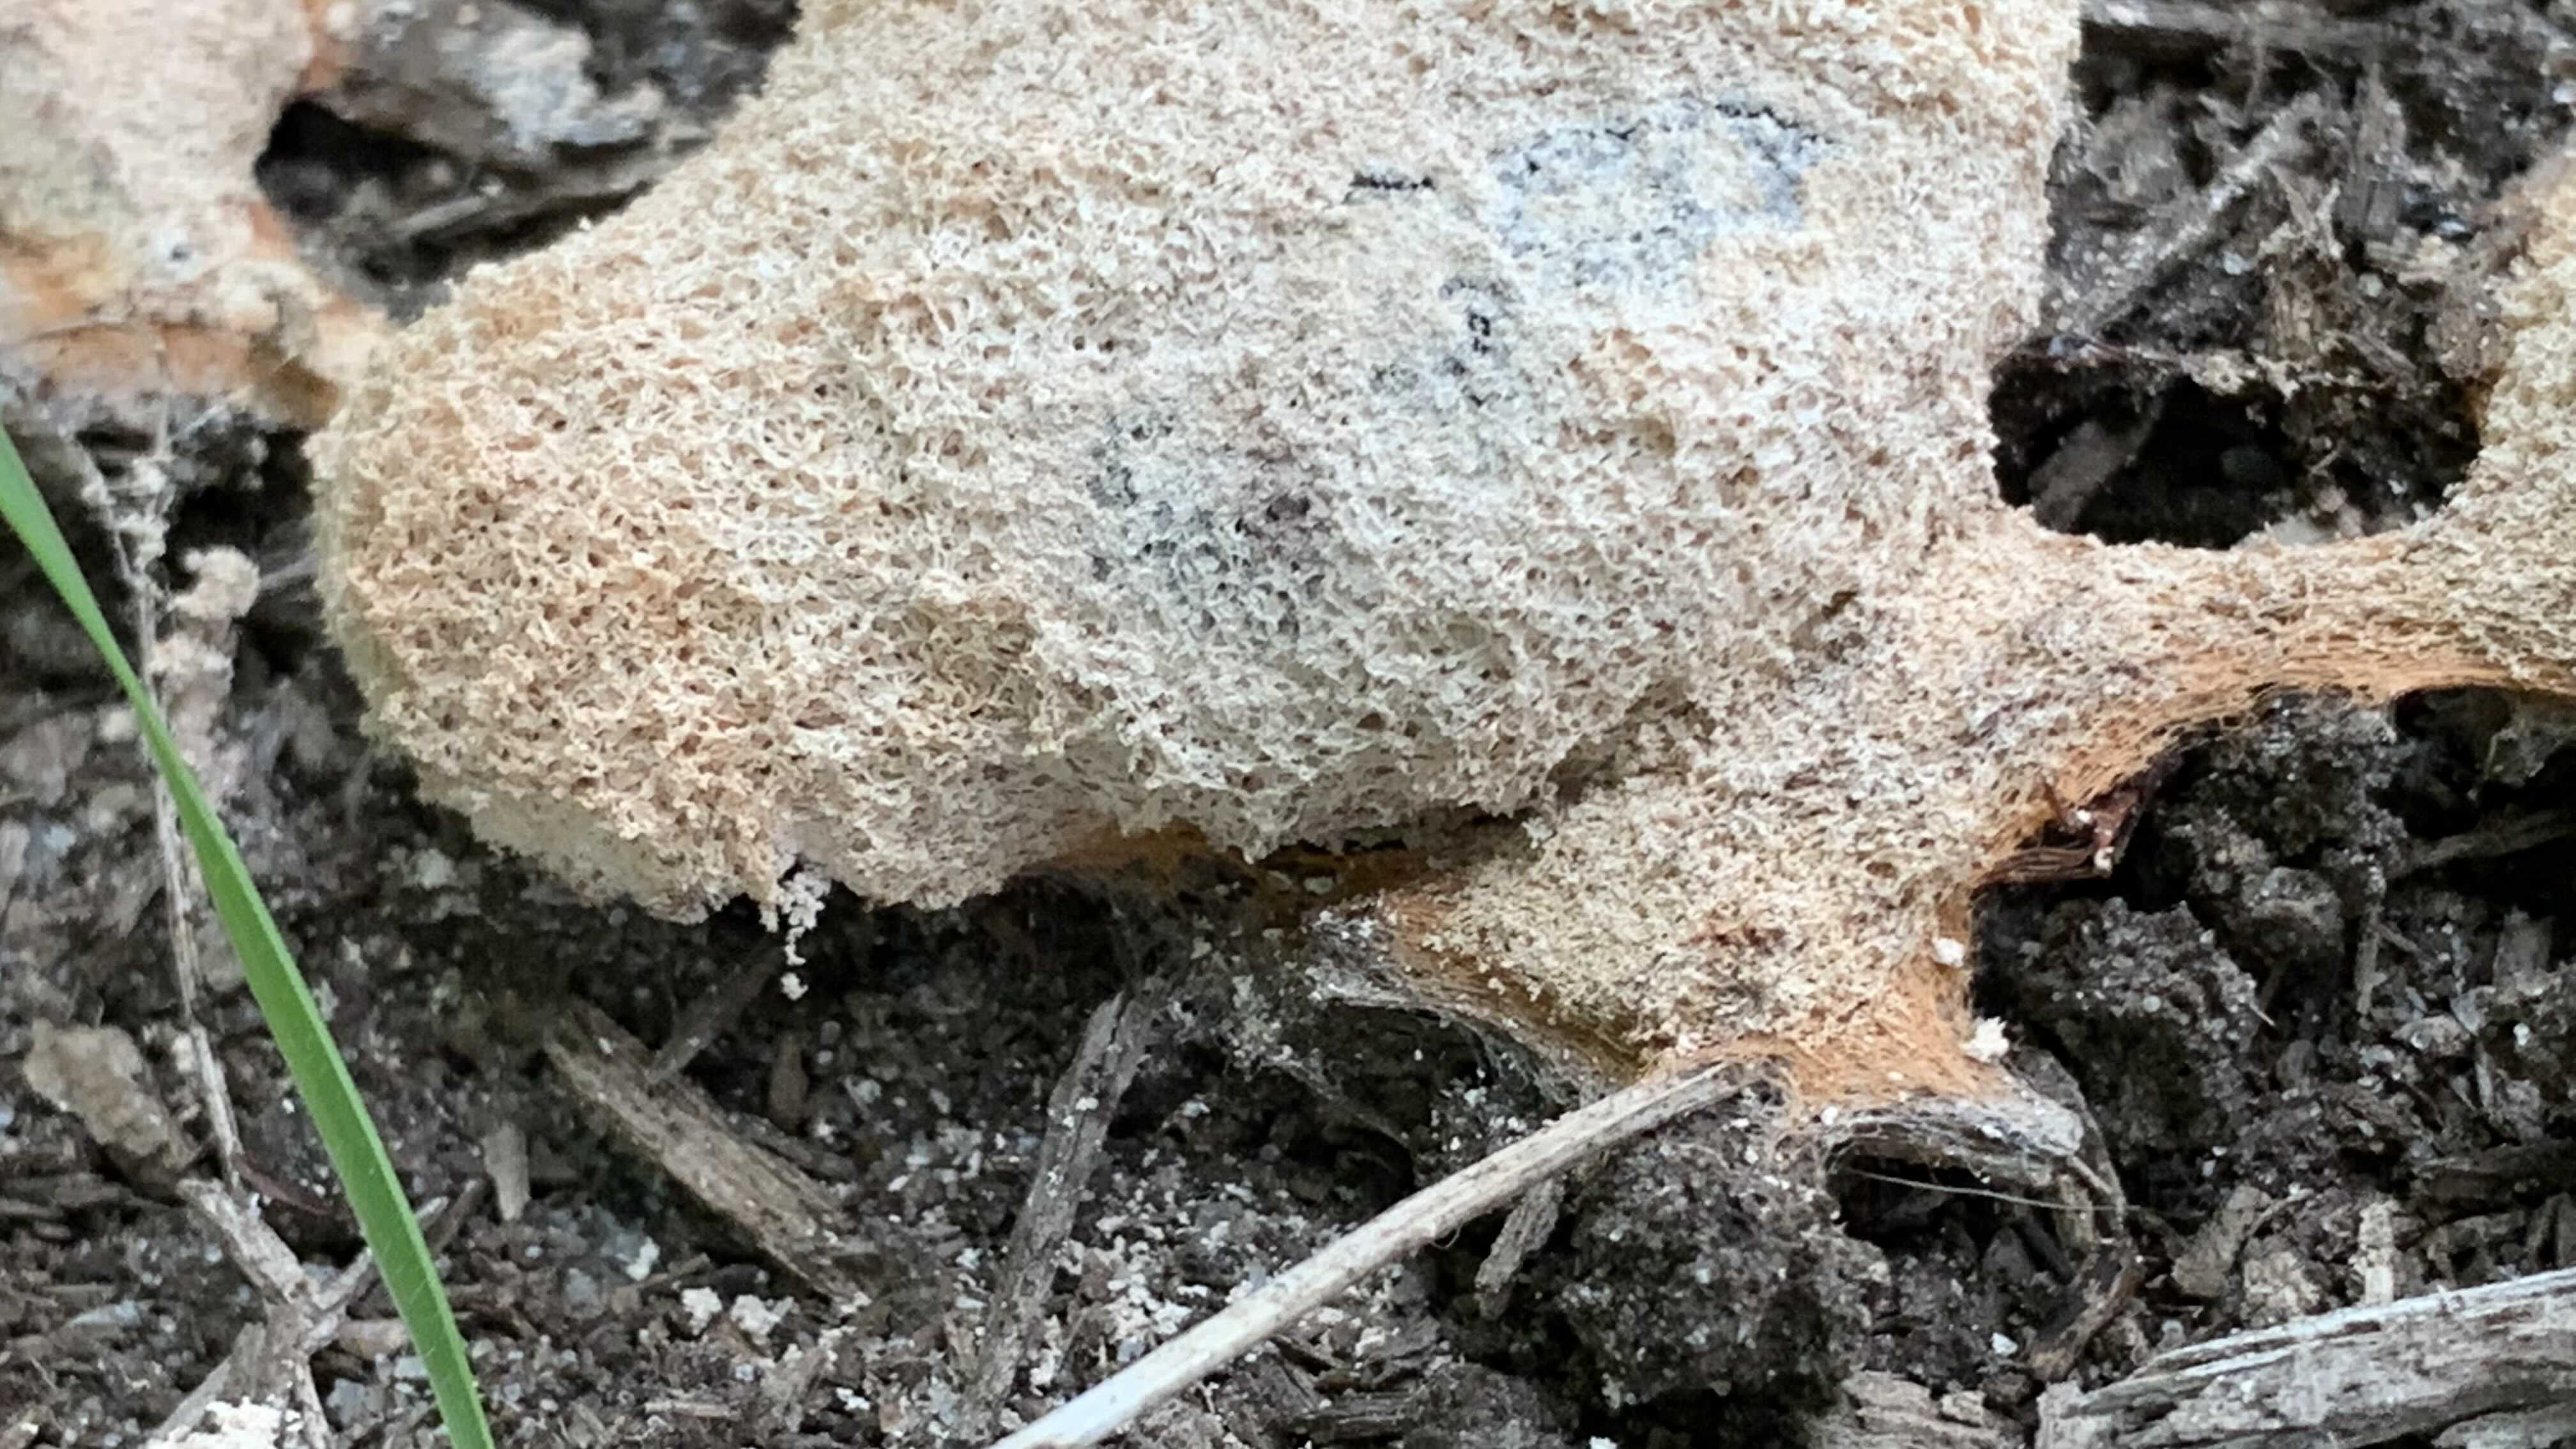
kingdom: Protozoa
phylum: Mycetozoa
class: Myxomycetes
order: Physarales
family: Physaraceae
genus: Fuligo
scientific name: Fuligo septica
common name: Dog vomit slime mold
